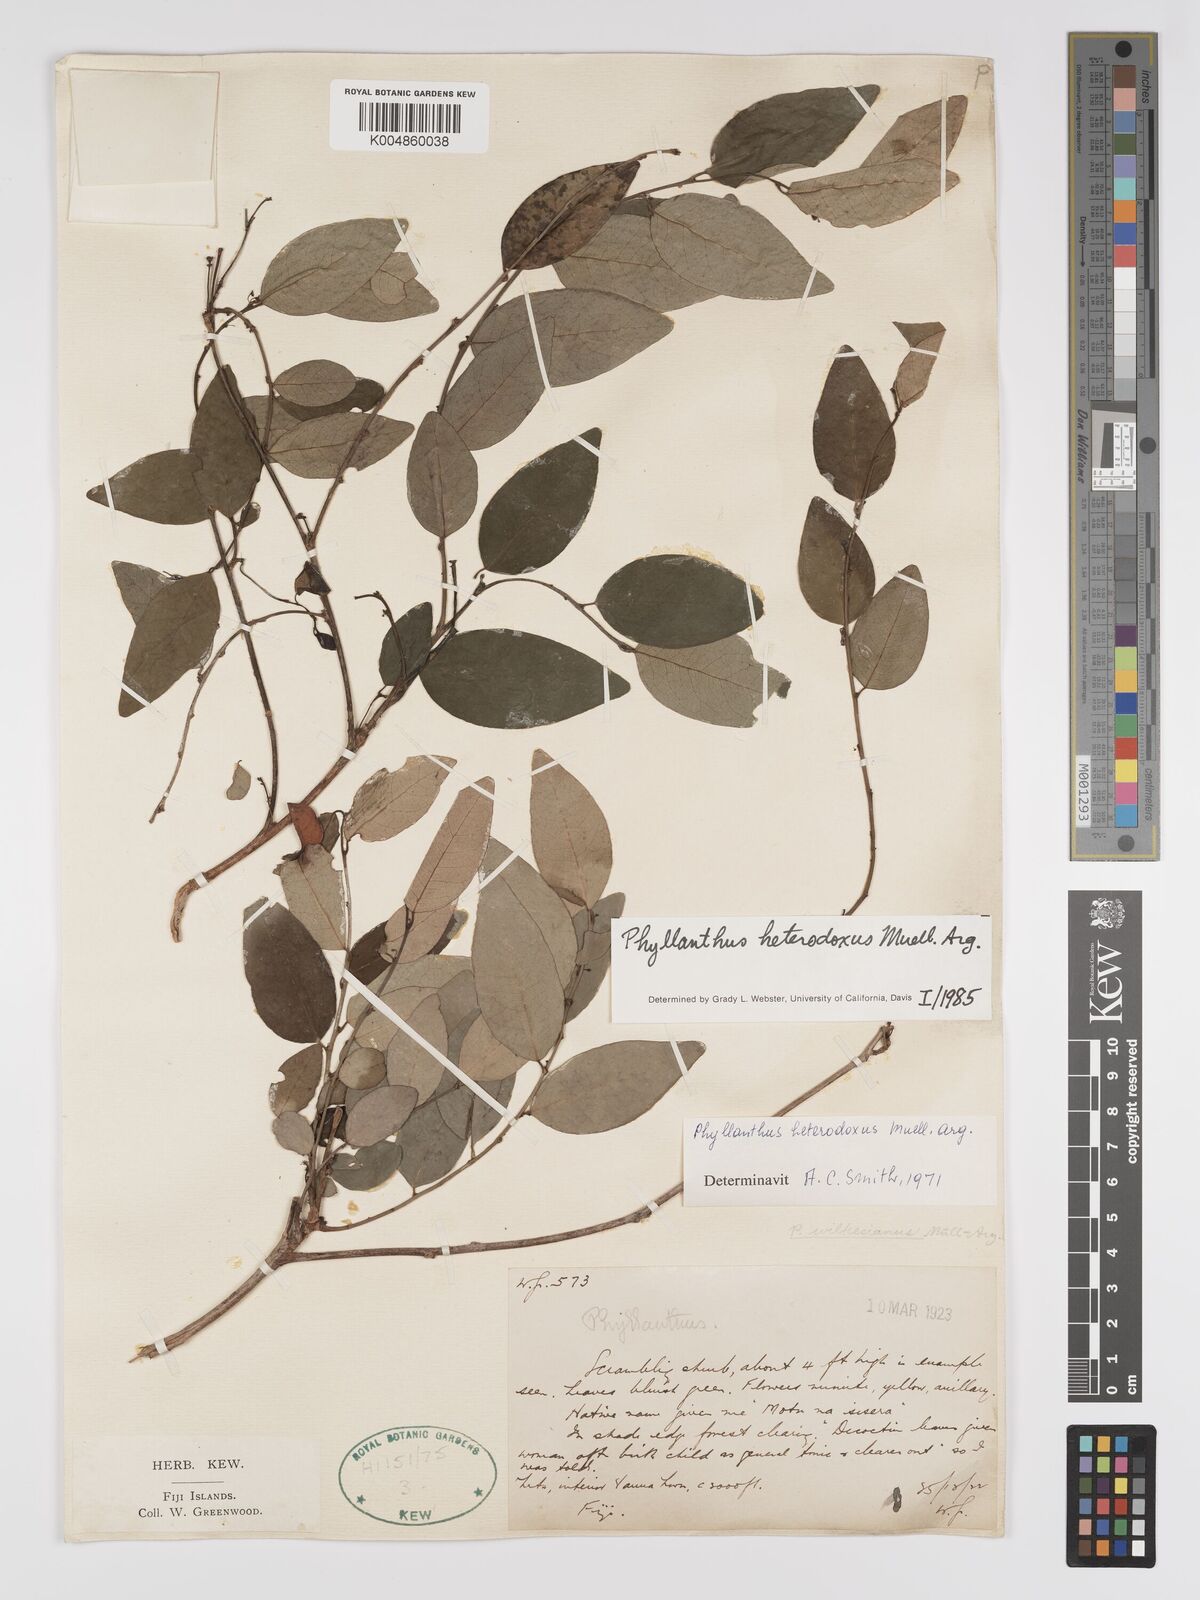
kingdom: Plantae
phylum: Tracheophyta
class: Magnoliopsida
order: Malpighiales
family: Phyllanthaceae
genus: Glochidion
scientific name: Glochidion heterodoxum
